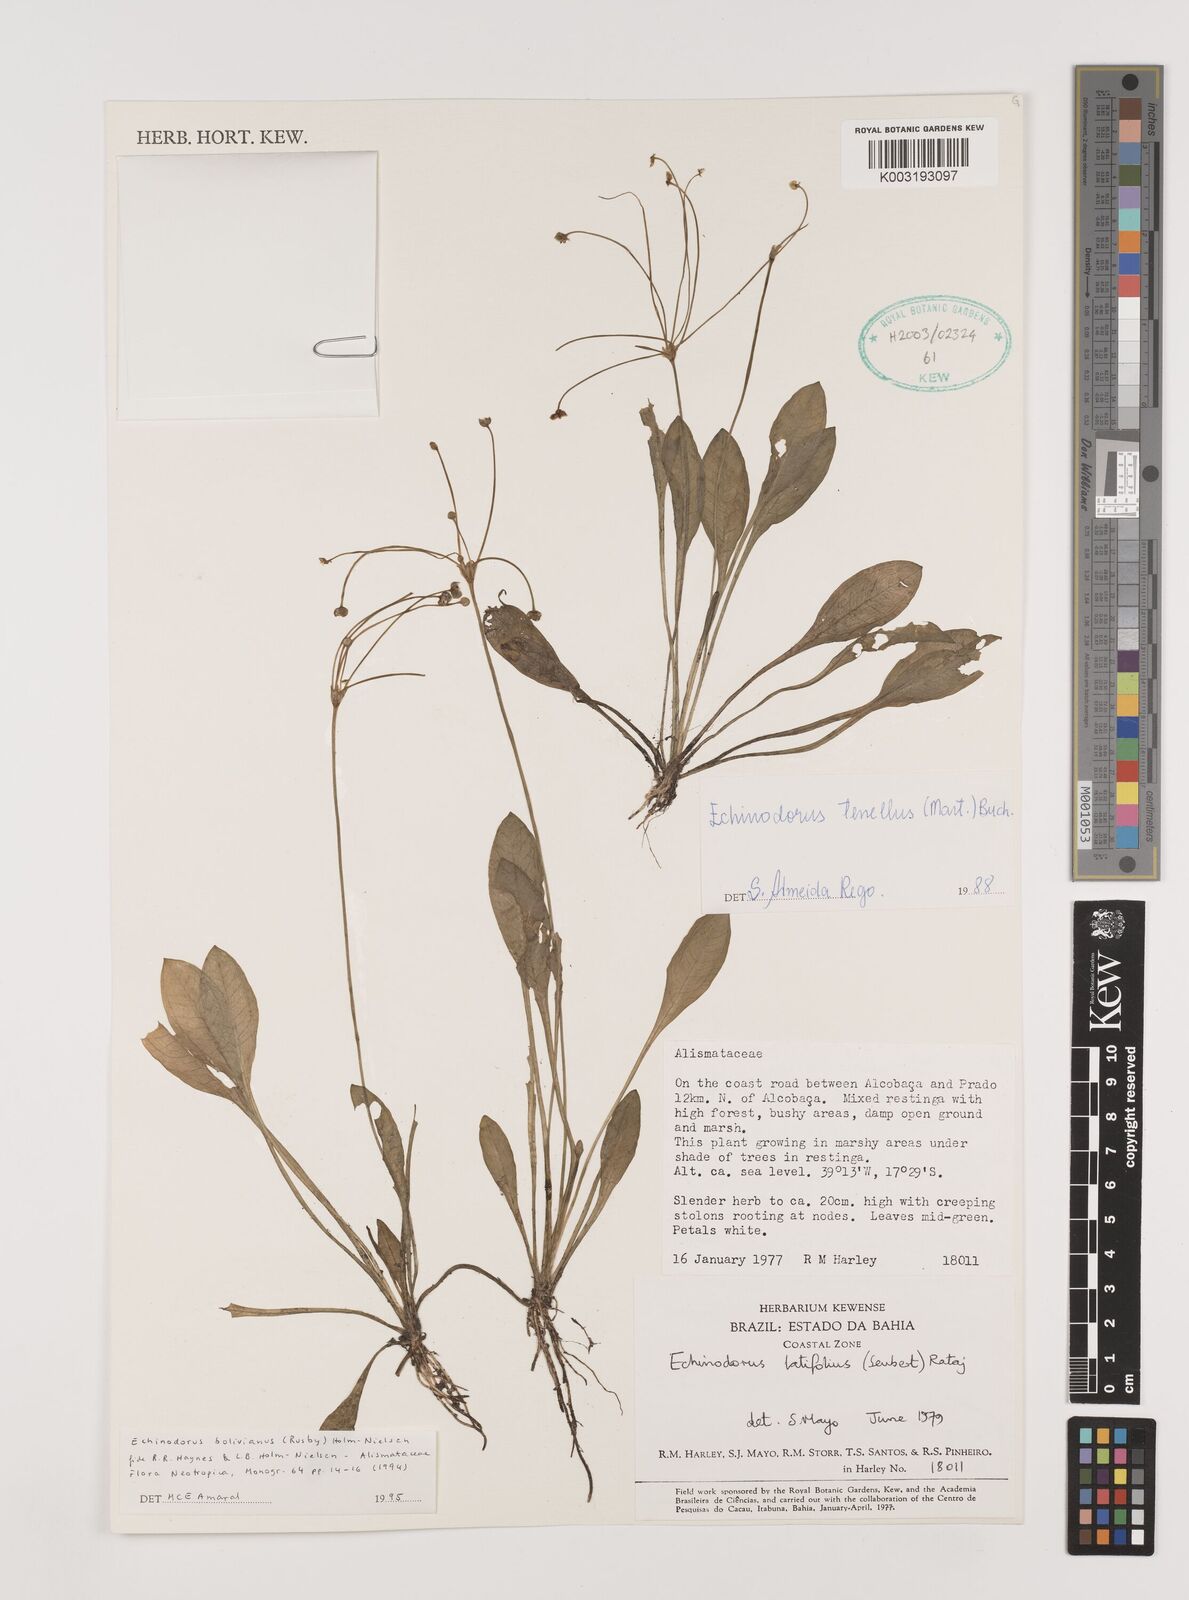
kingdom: Plantae
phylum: Tracheophyta
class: Liliopsida
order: Alismatales
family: Alismataceae
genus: Helanthium
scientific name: Helanthium bolivianum
